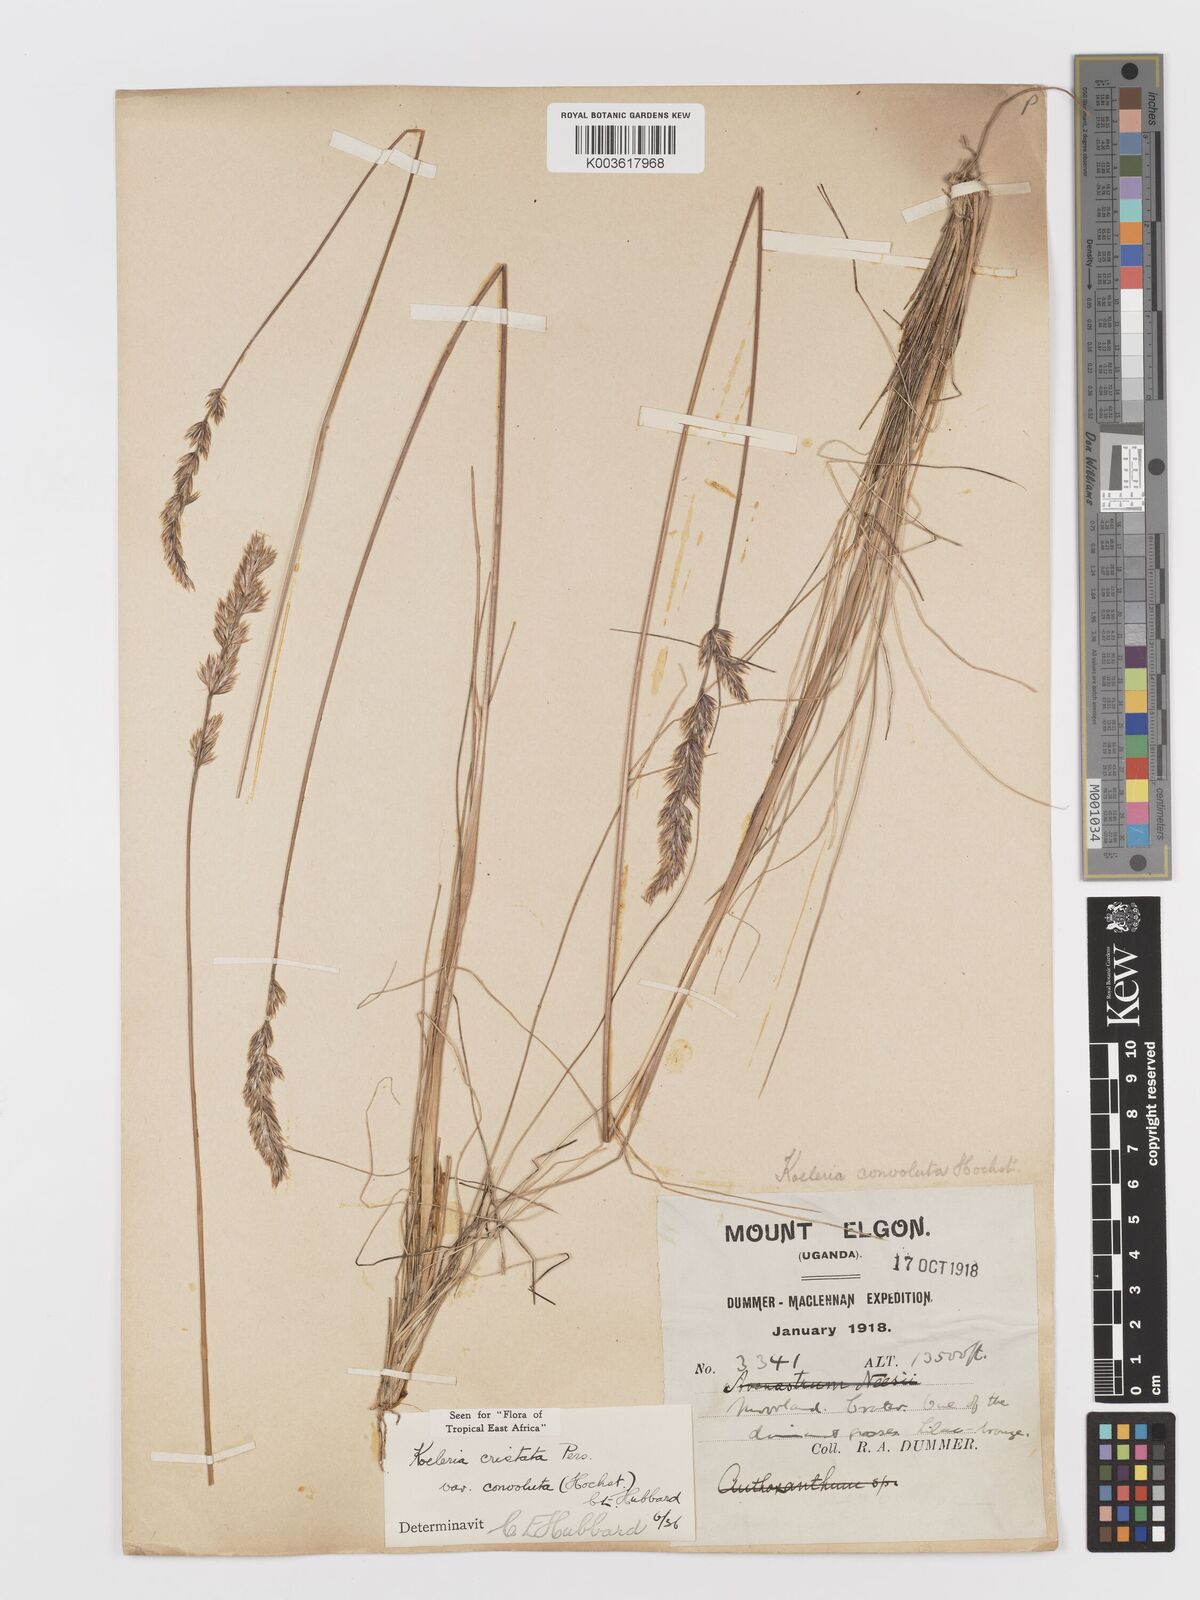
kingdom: Plantae
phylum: Tracheophyta
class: Liliopsida
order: Poales
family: Poaceae
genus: Koeleria
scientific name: Koeleria capensis
